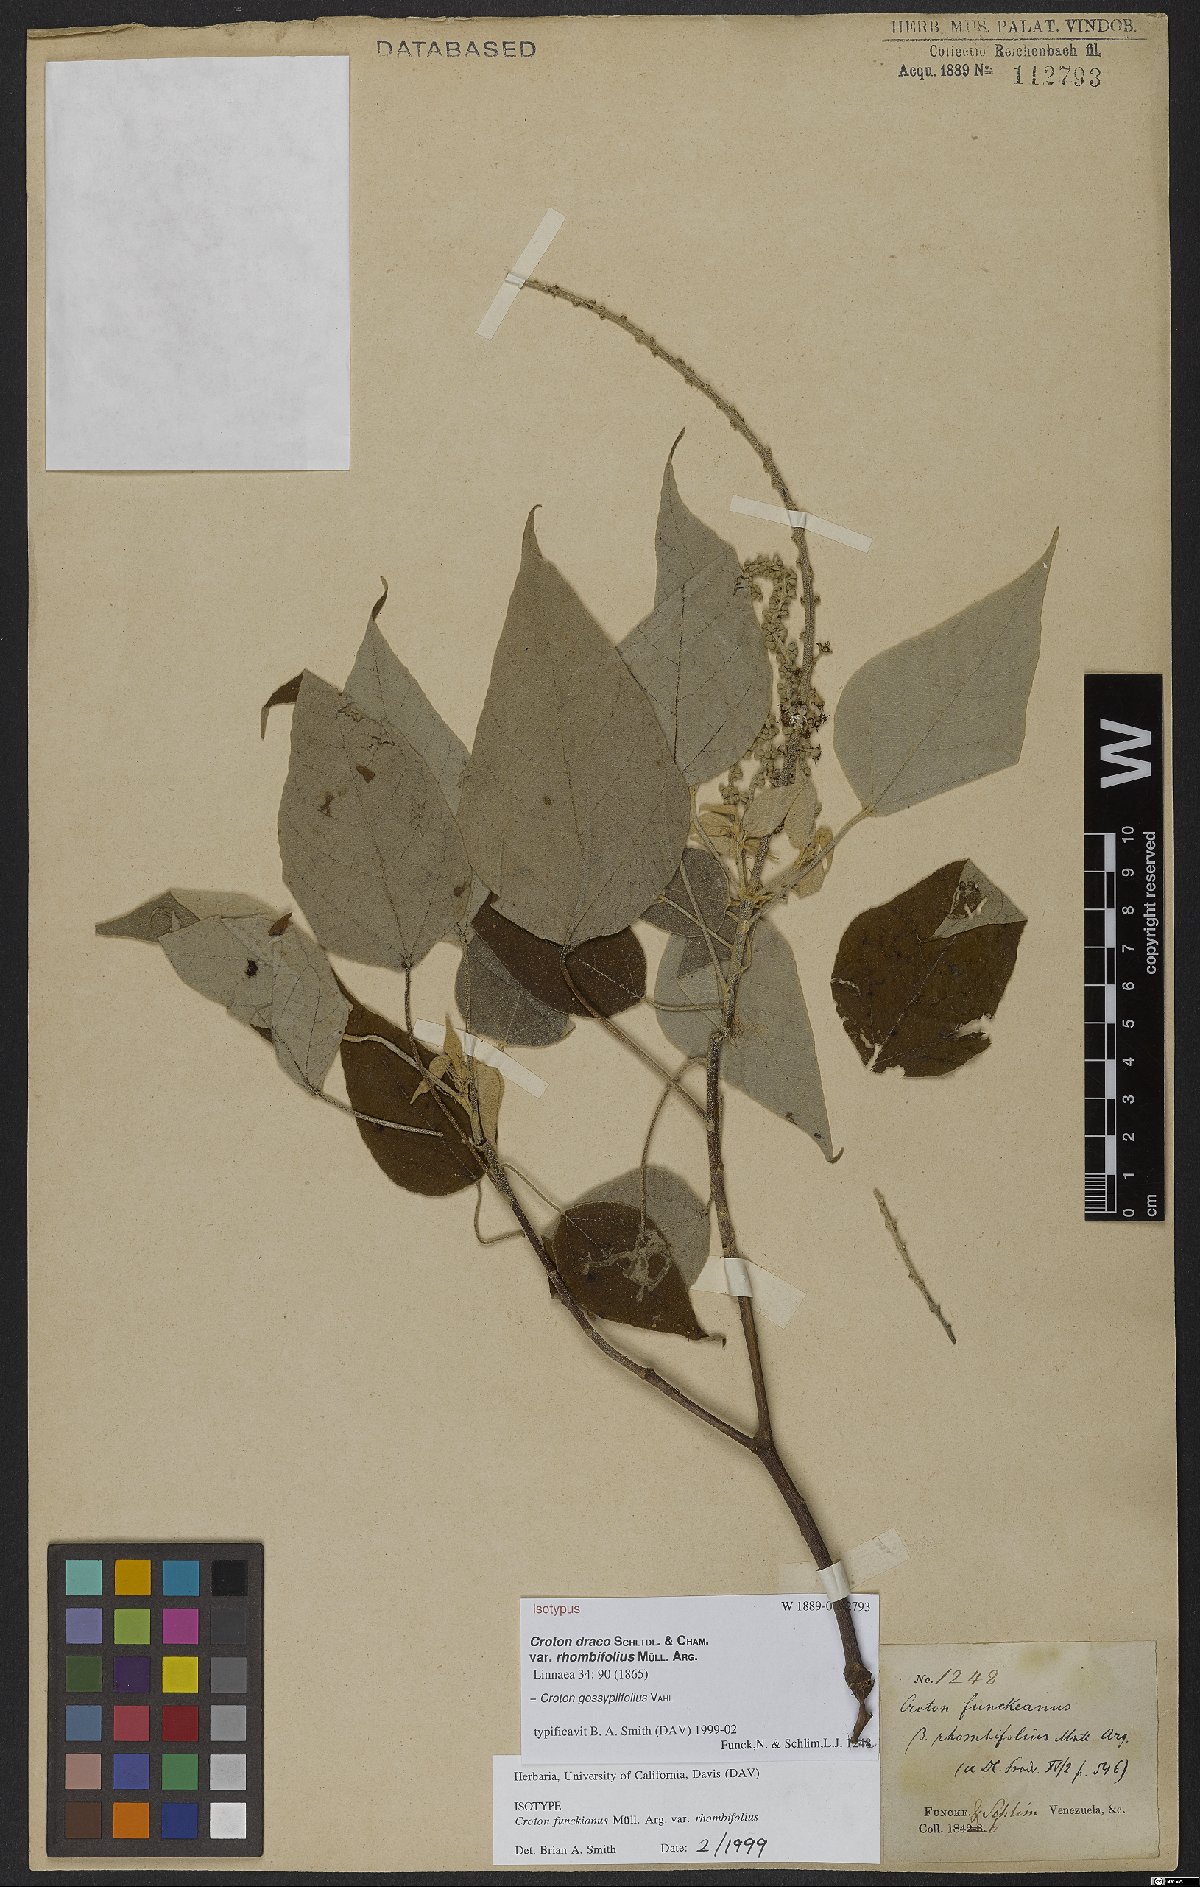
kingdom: Plantae
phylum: Tracheophyta
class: Magnoliopsida
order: Malpighiales
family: Euphorbiaceae
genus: Croton
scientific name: Croton gossypiifolius
